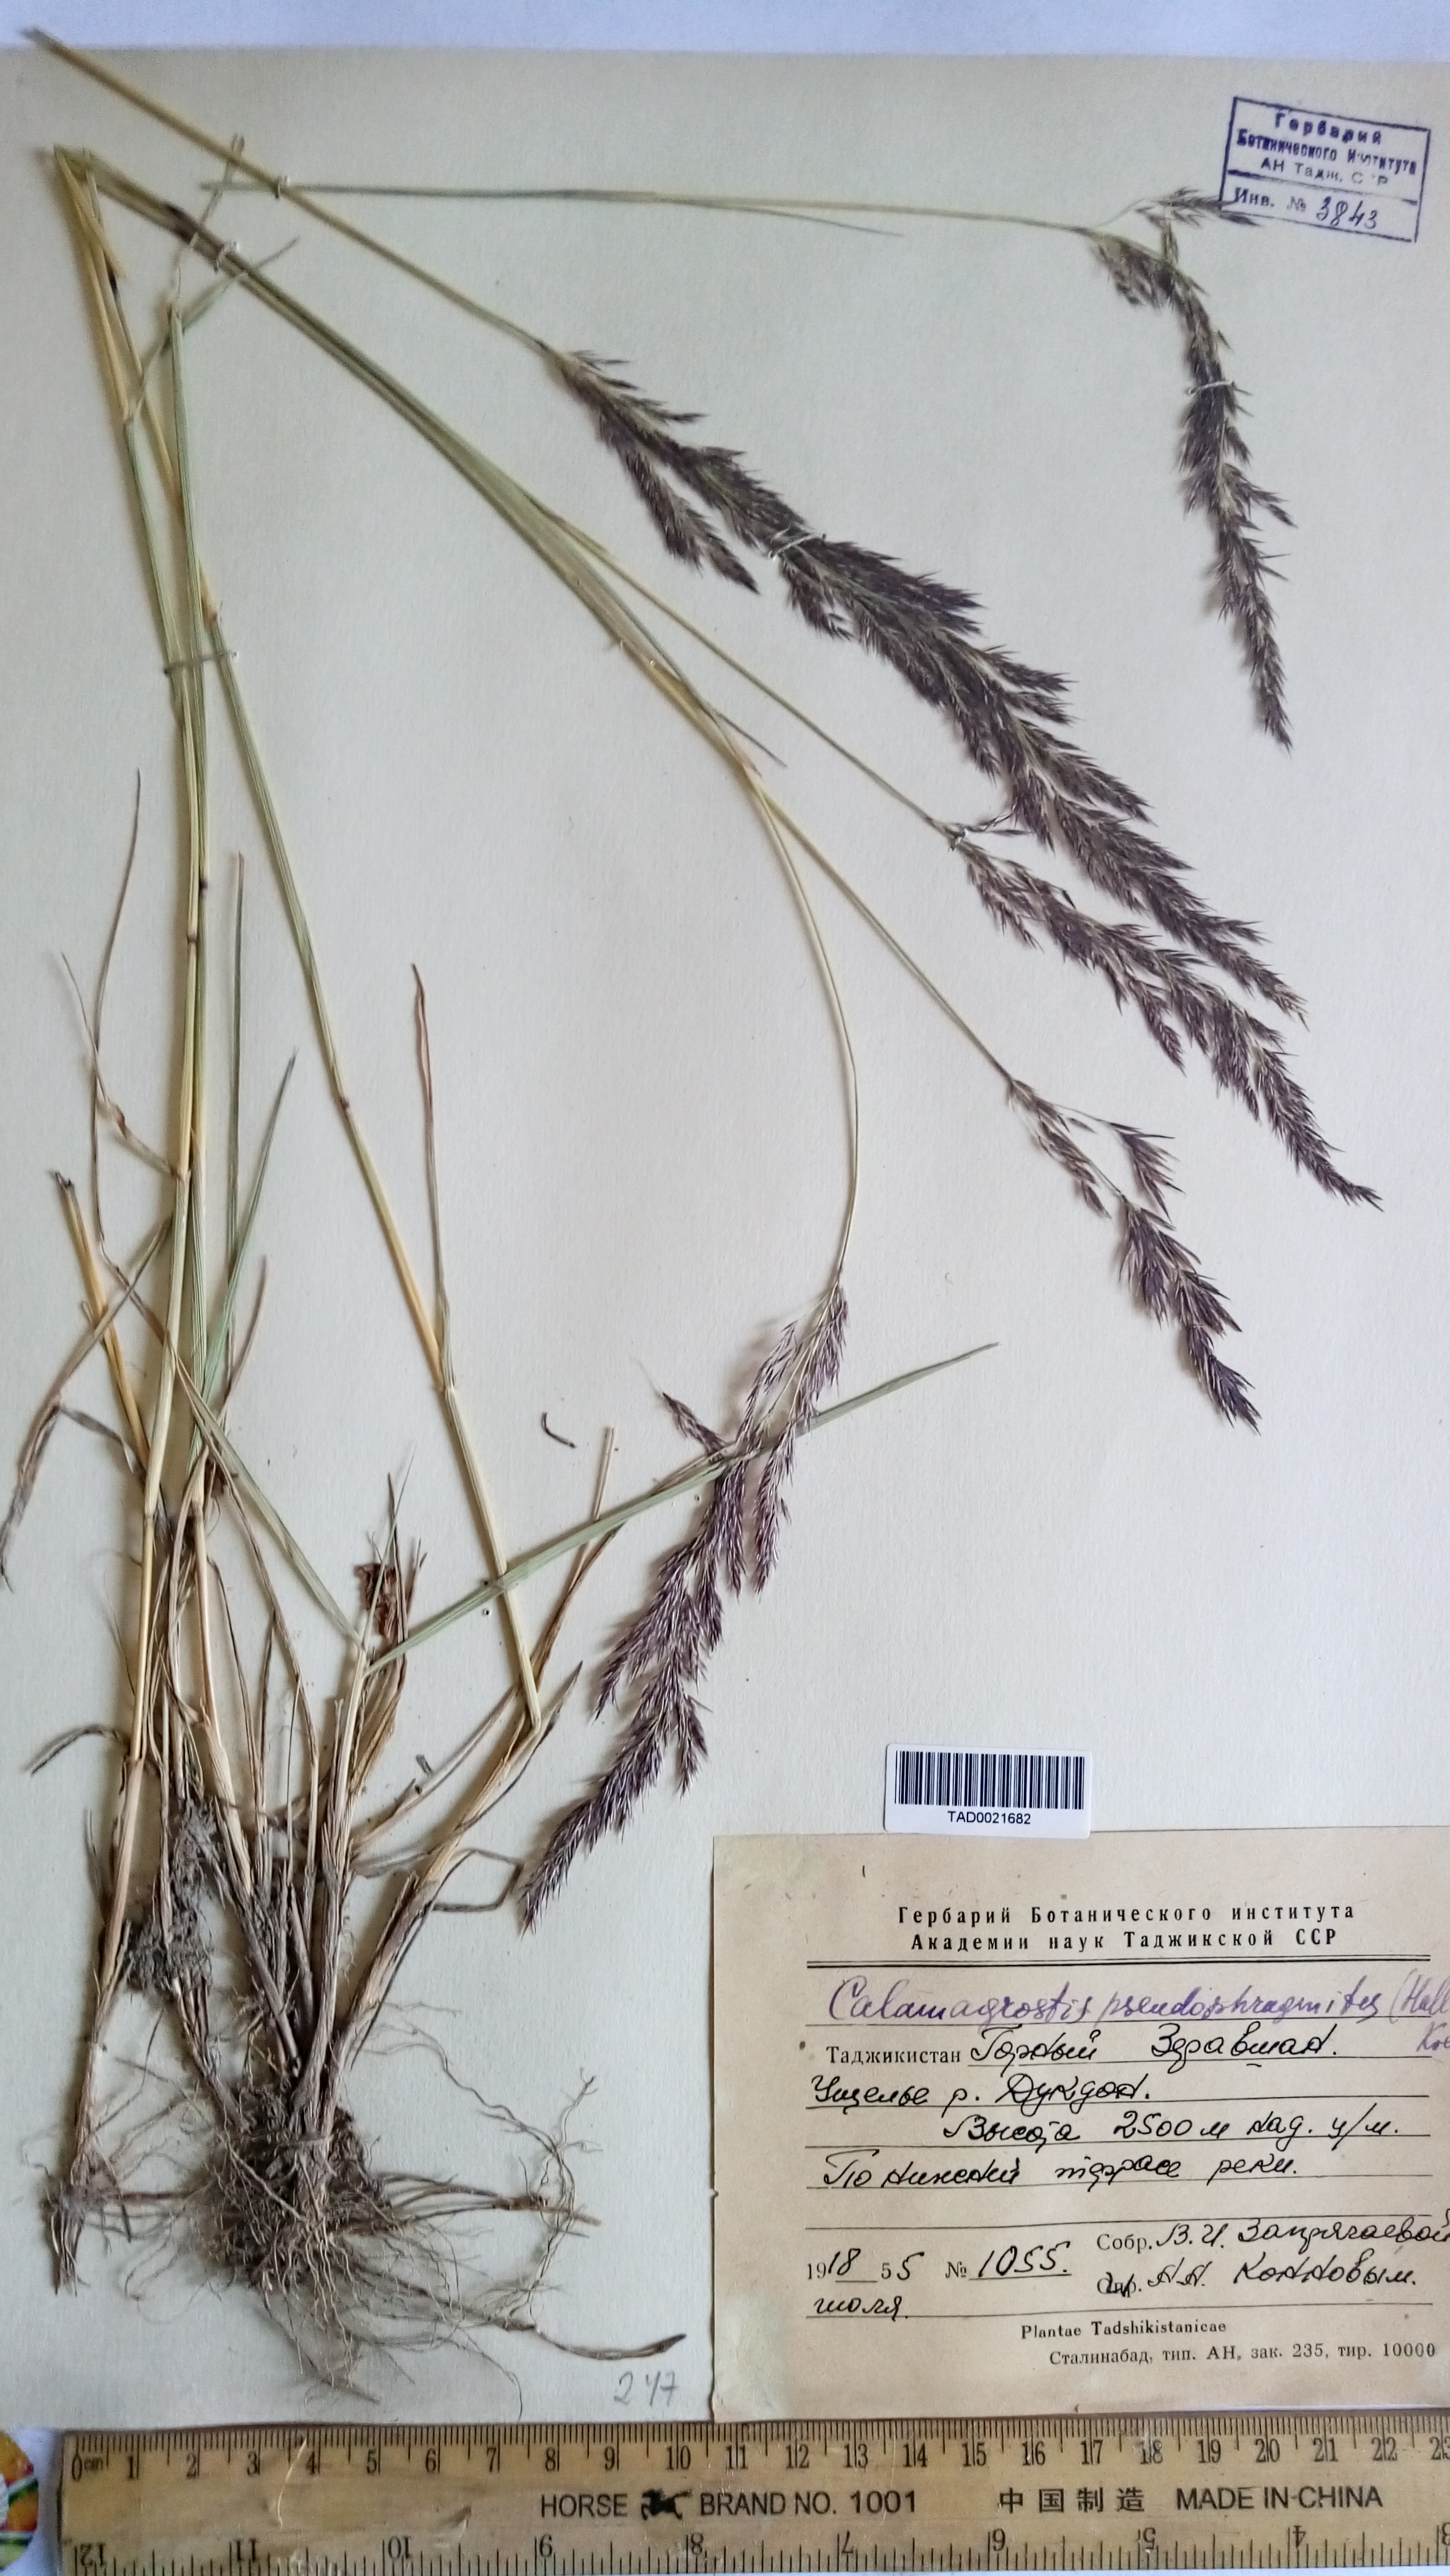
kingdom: Plantae
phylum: Tracheophyta
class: Liliopsida
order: Poales
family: Poaceae
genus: Calamagrostis
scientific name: Calamagrostis pseudophragmites
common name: Coastal small-reed
